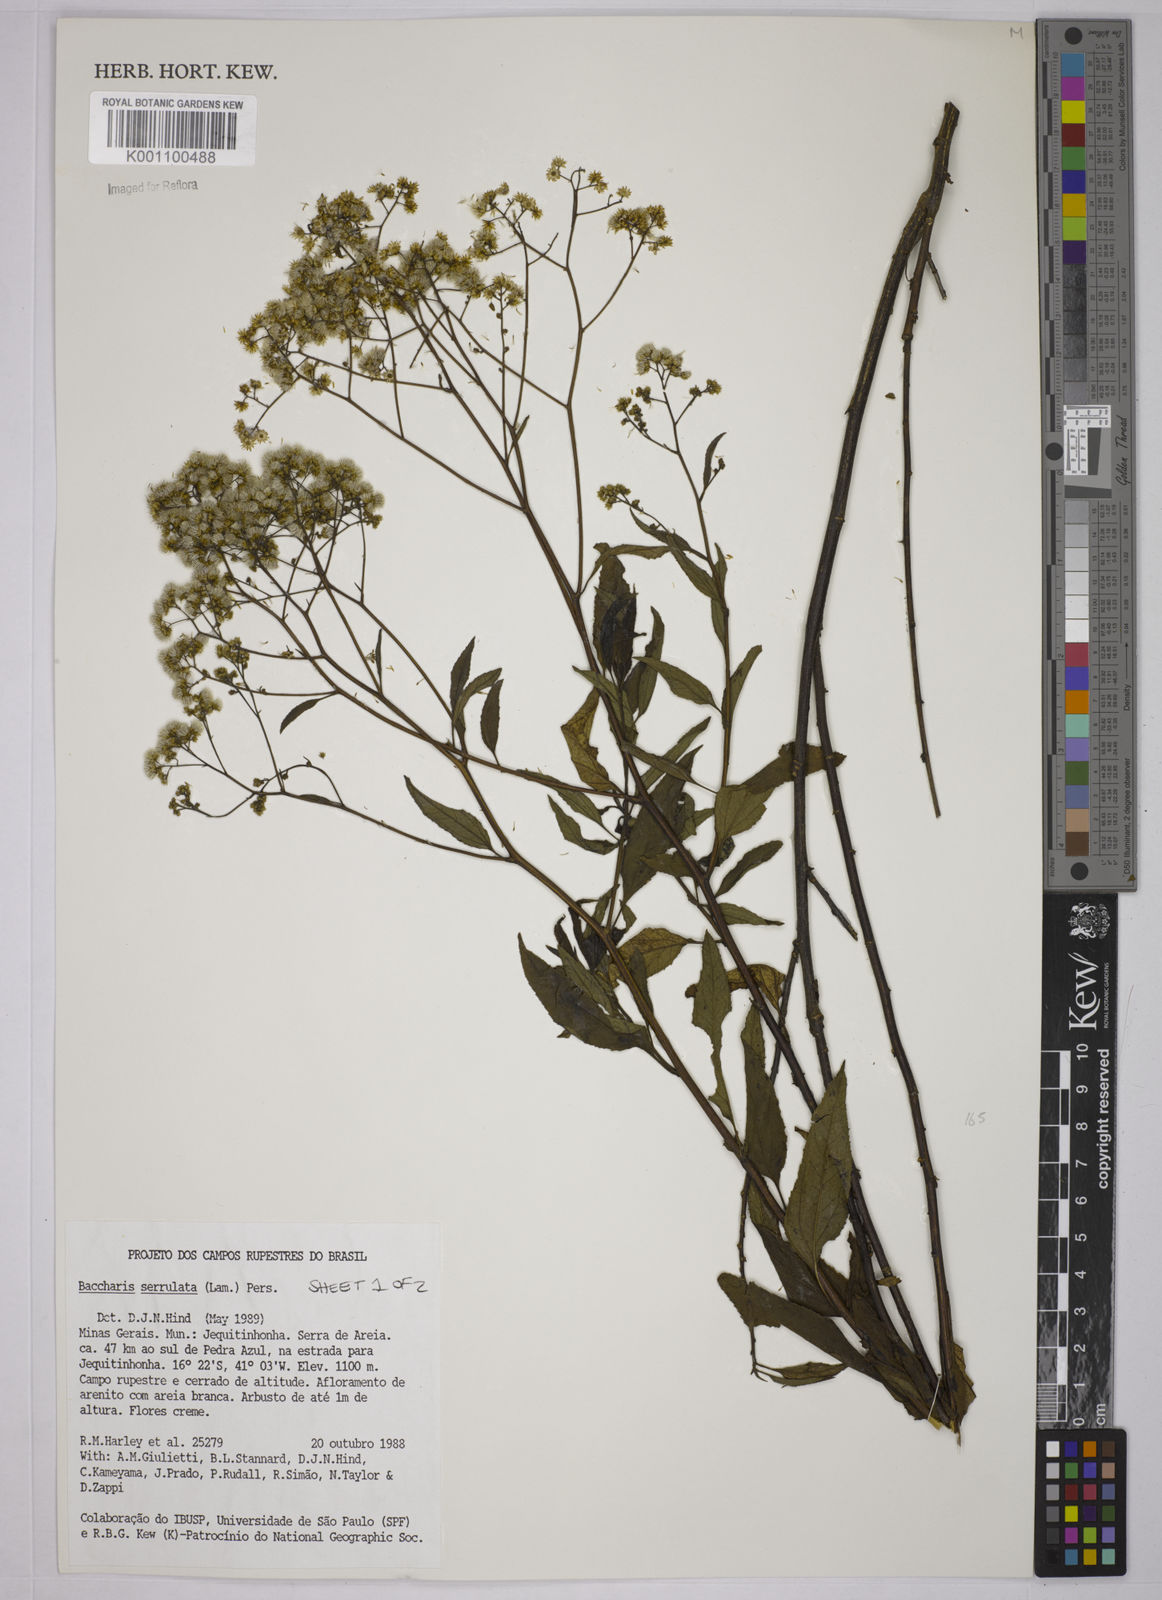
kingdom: Plantae
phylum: Tracheophyta
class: Magnoliopsida
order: Asterales
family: Asteraceae
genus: Baccharis
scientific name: Baccharis serrulata
